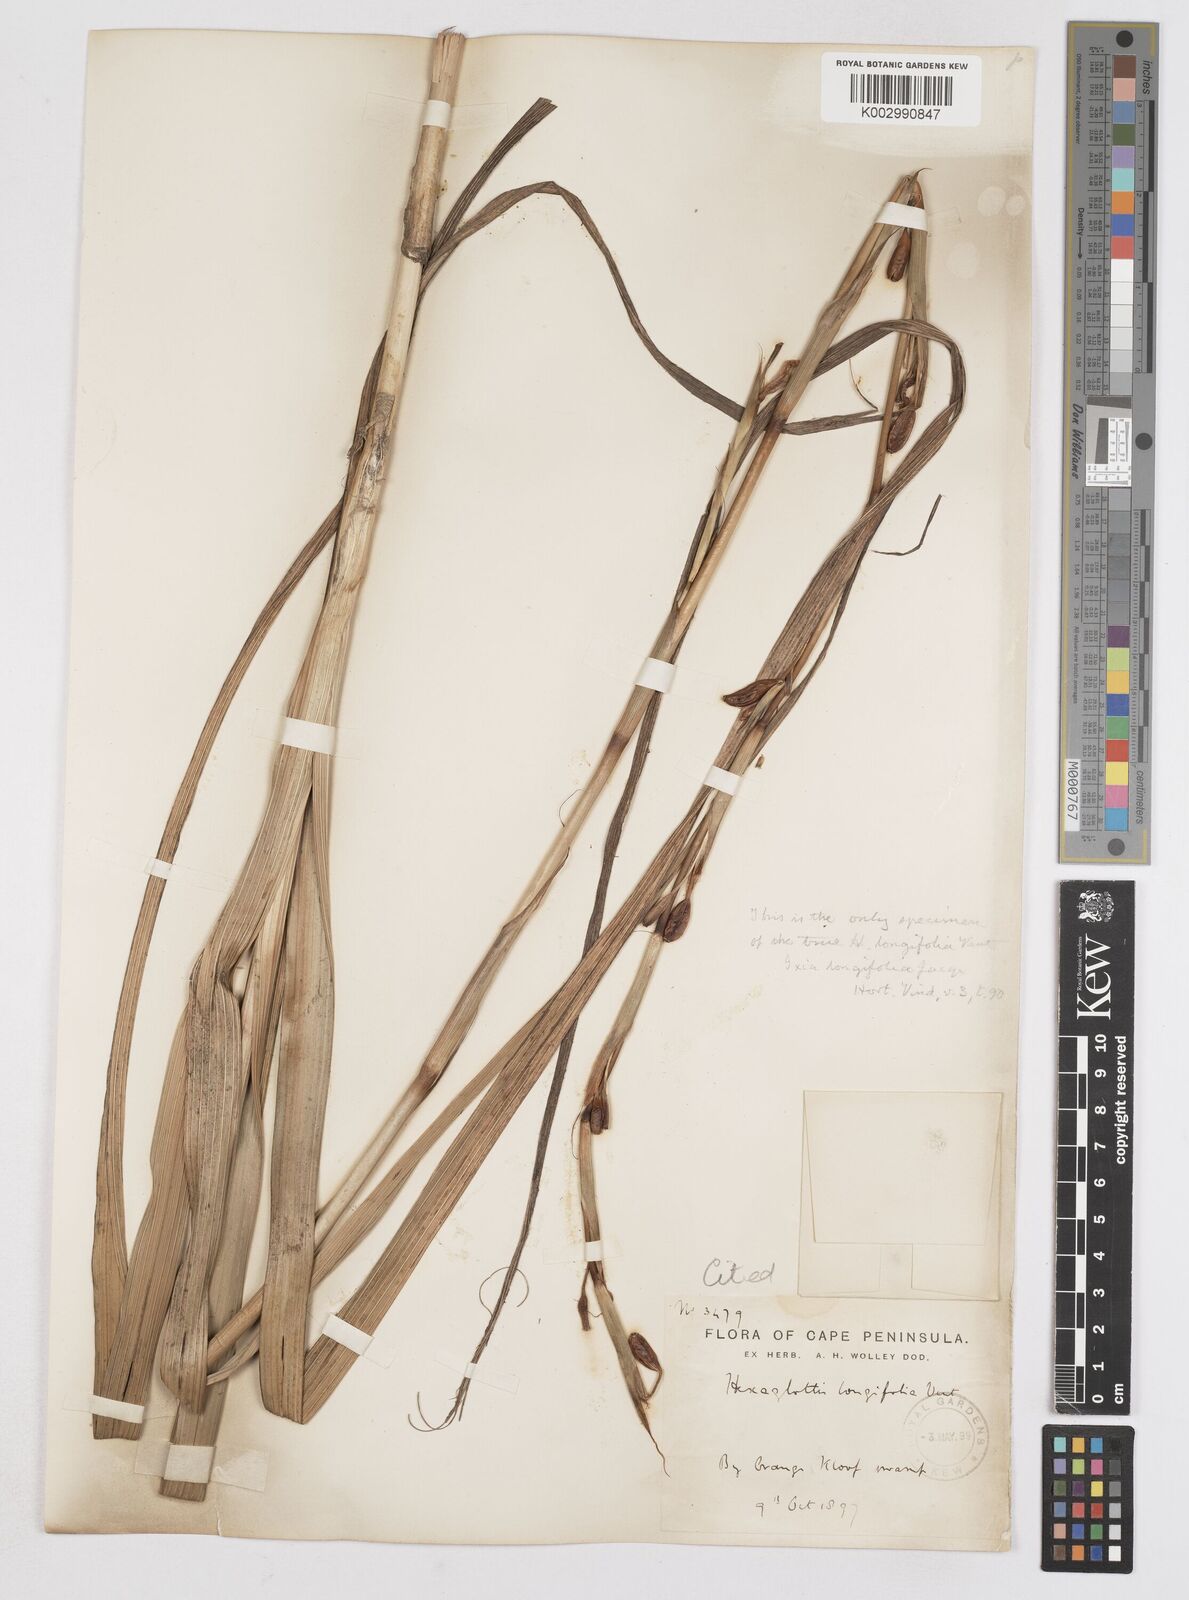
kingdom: Plantae
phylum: Tracheophyta
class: Liliopsida
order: Asparagales
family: Iridaceae
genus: Moraea
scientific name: Moraea
